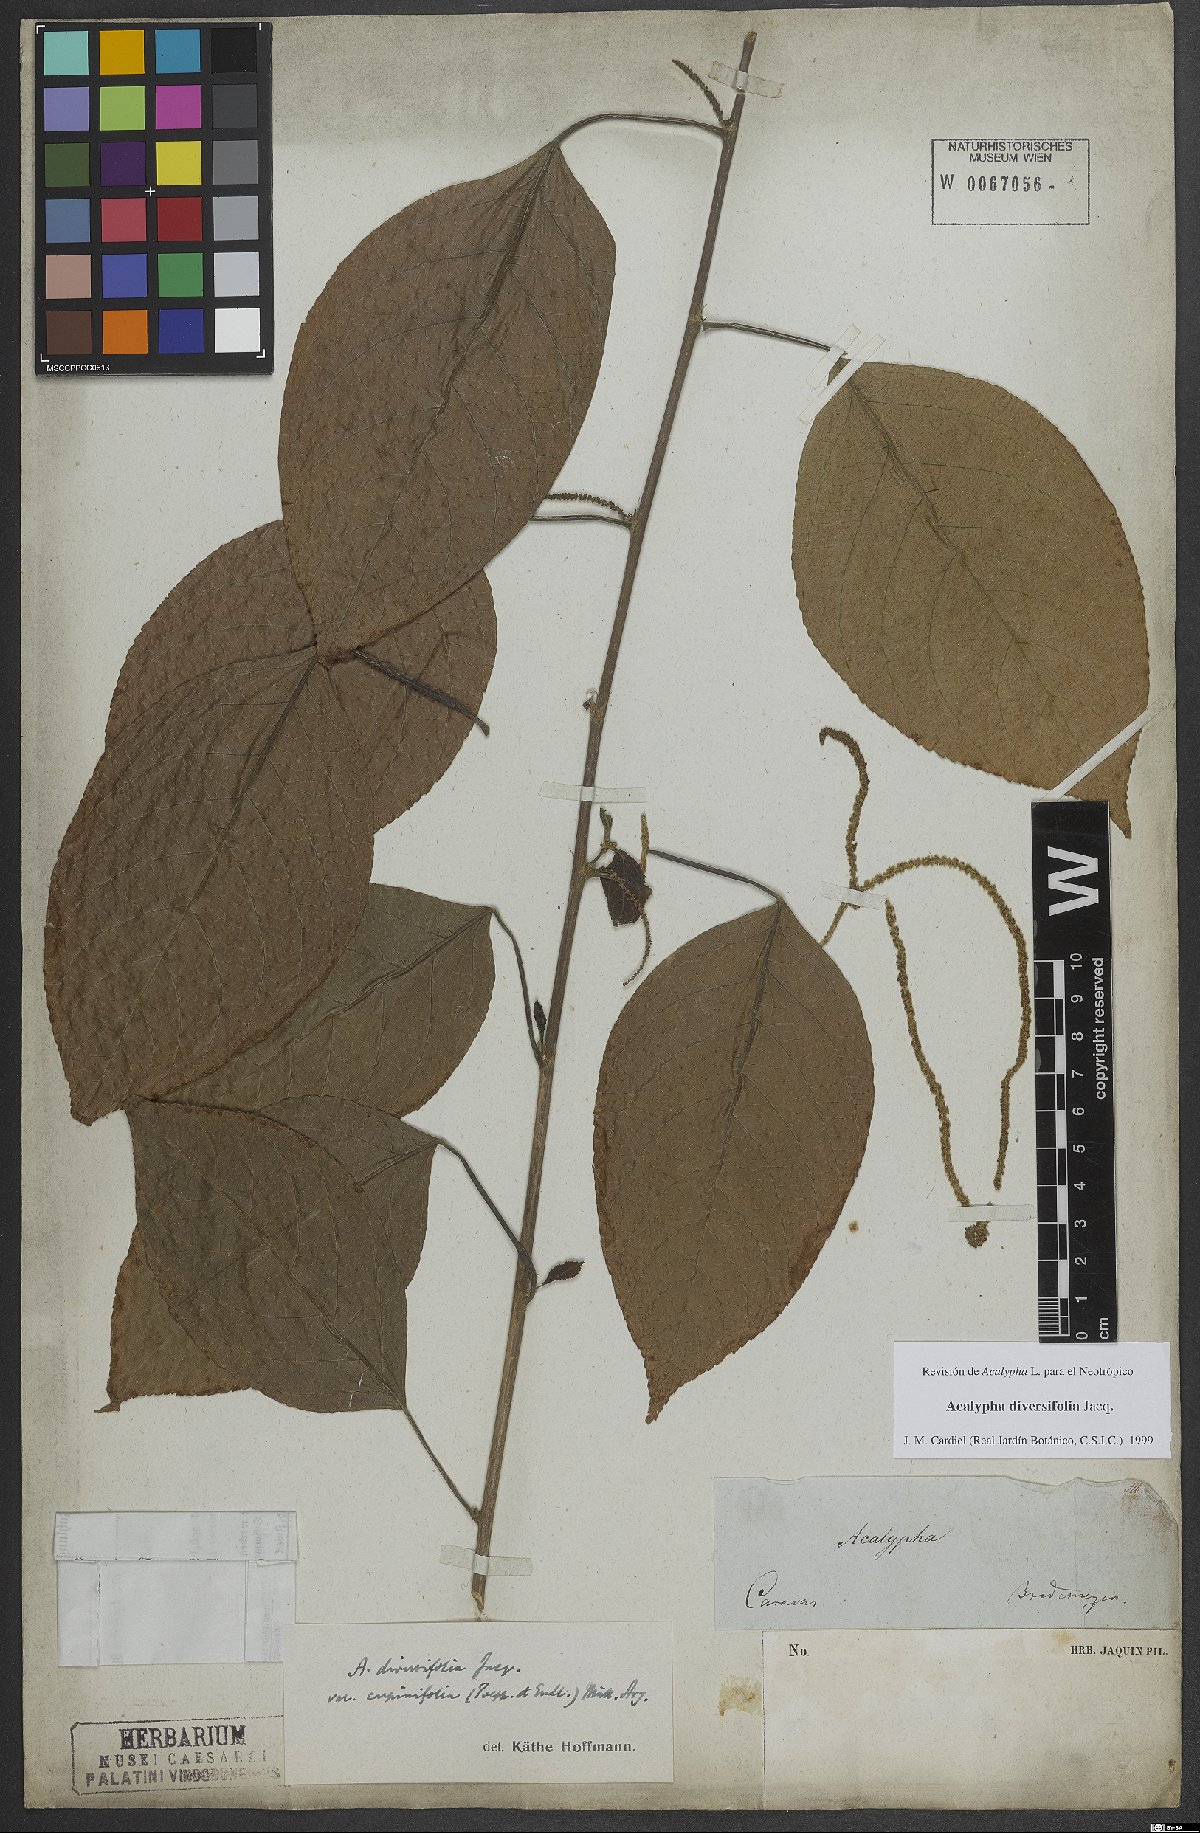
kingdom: Plantae
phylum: Tracheophyta
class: Magnoliopsida
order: Malpighiales
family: Euphorbiaceae
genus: Acalypha
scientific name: Acalypha diversifolia
